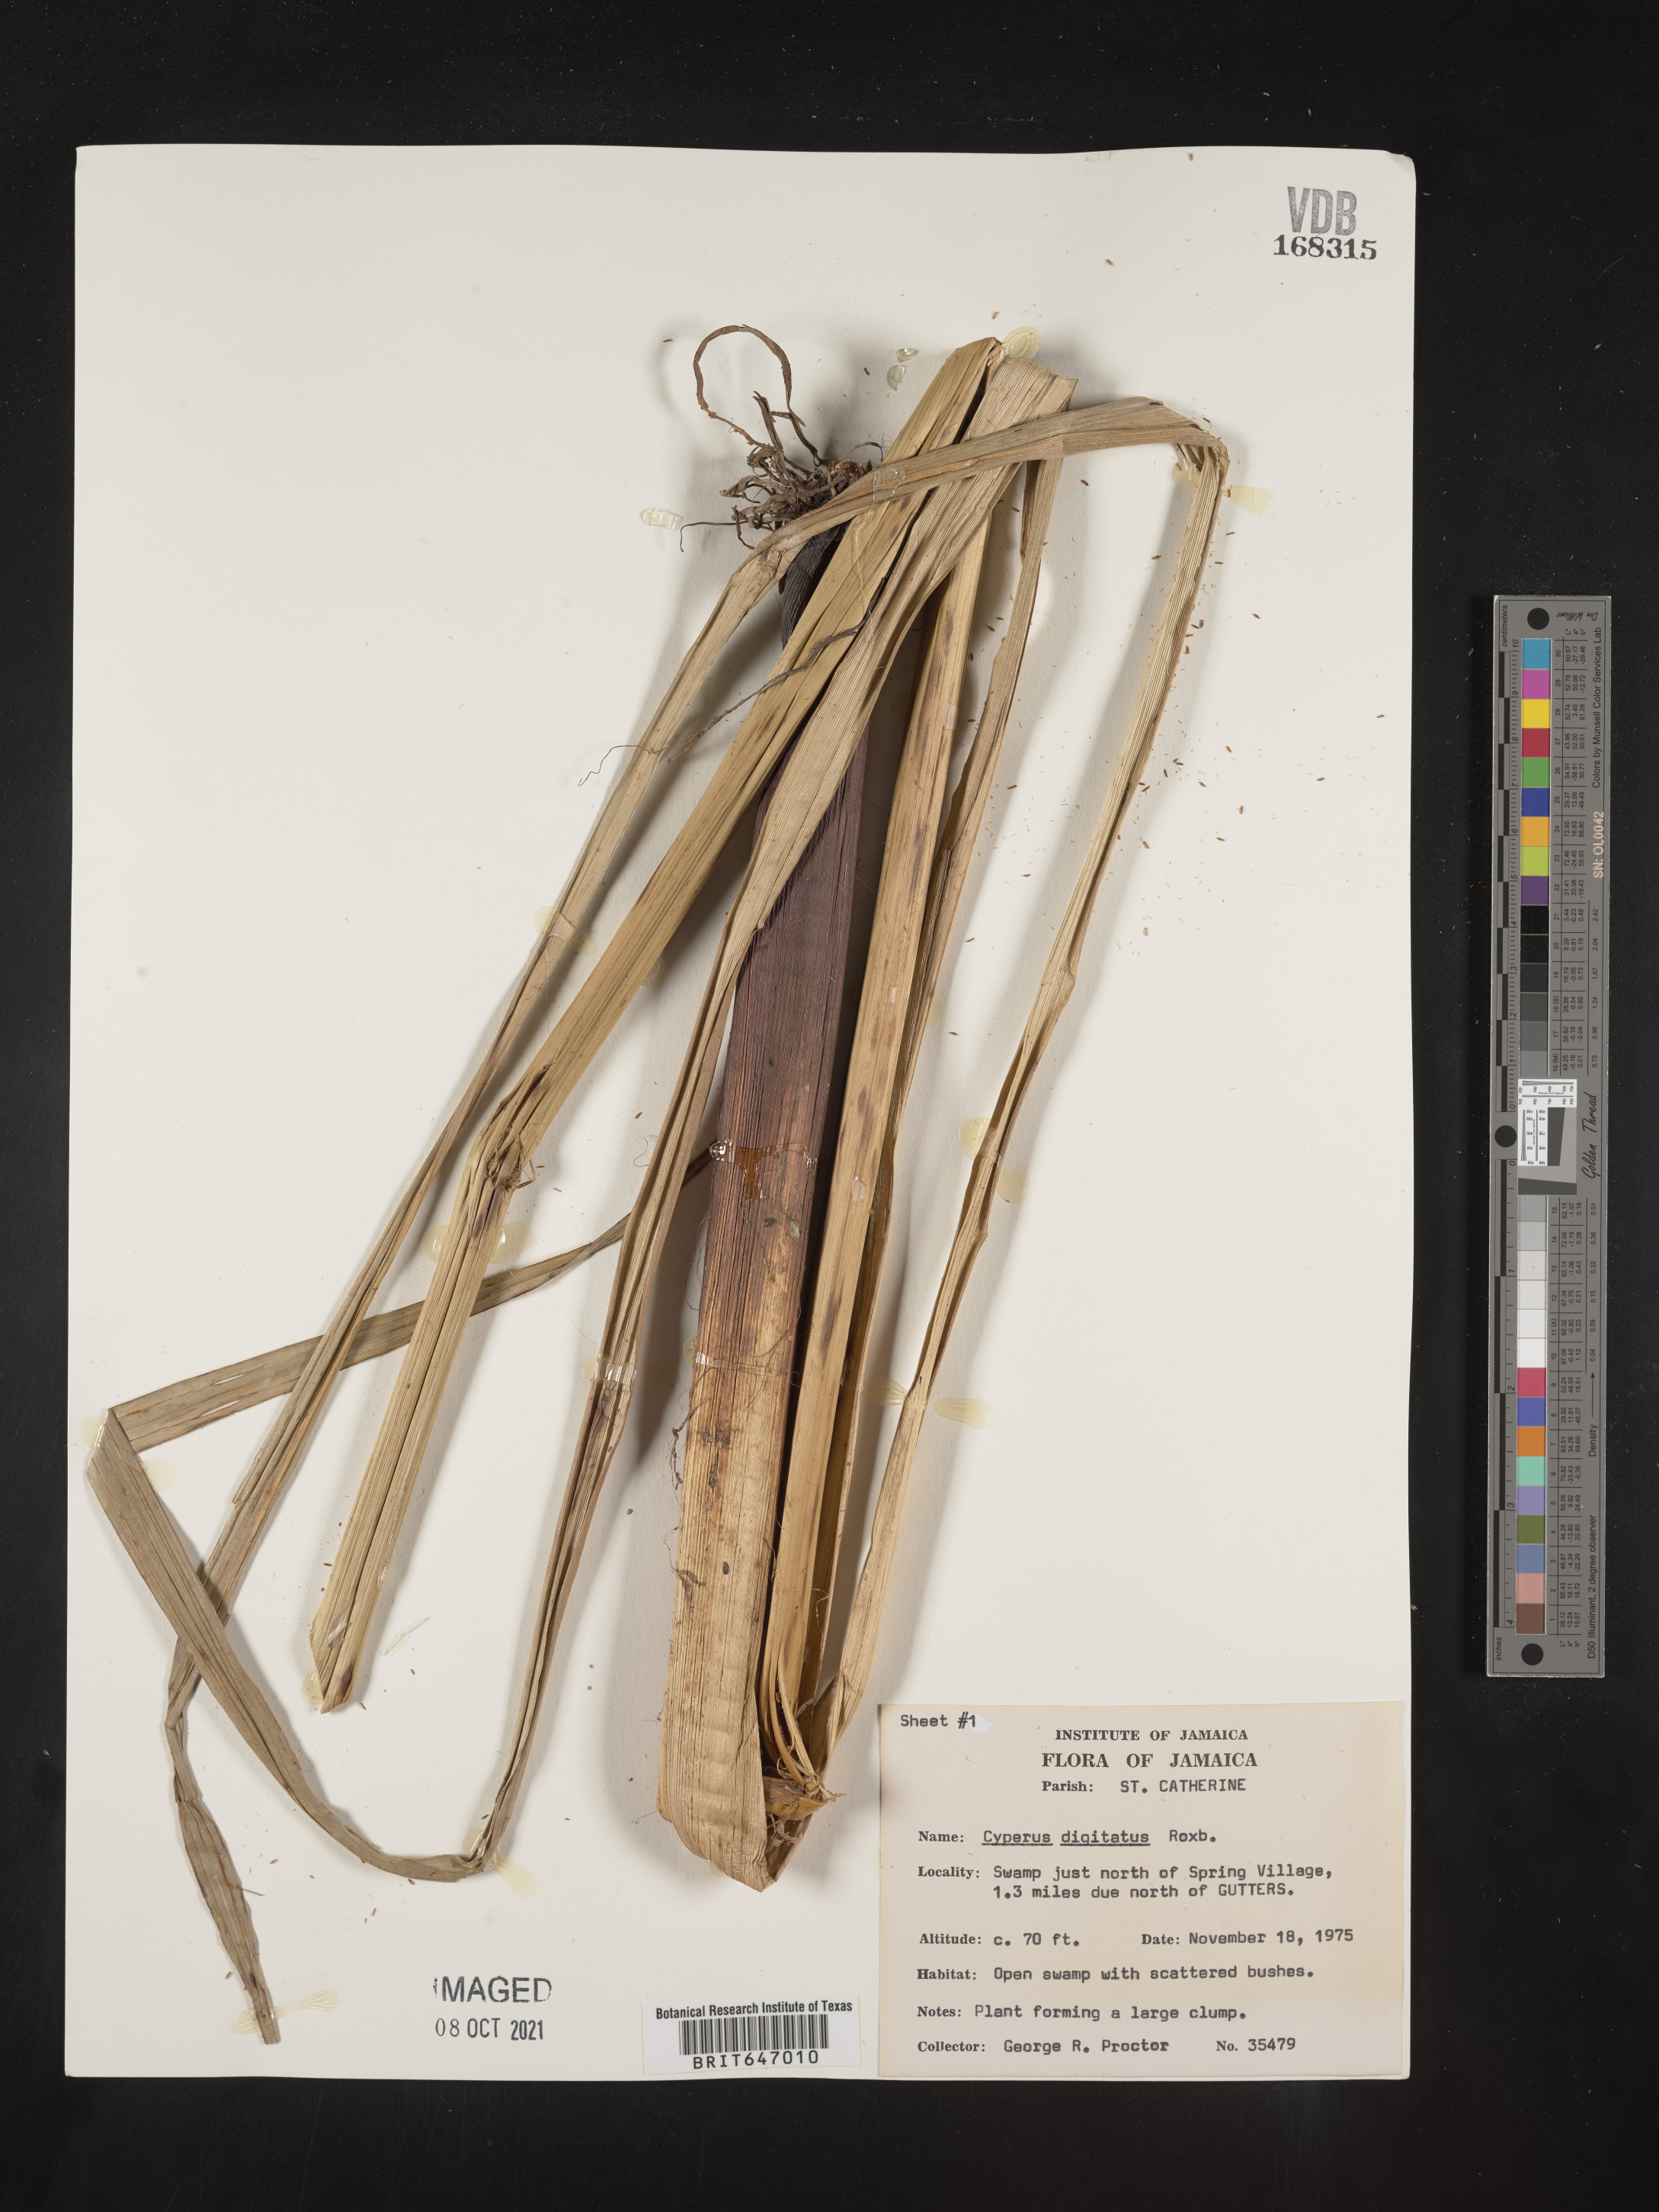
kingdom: Plantae
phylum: Tracheophyta
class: Liliopsida
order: Poales
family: Cyperaceae
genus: Cyperus
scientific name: Cyperus digitatus
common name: Finger flatsedge
